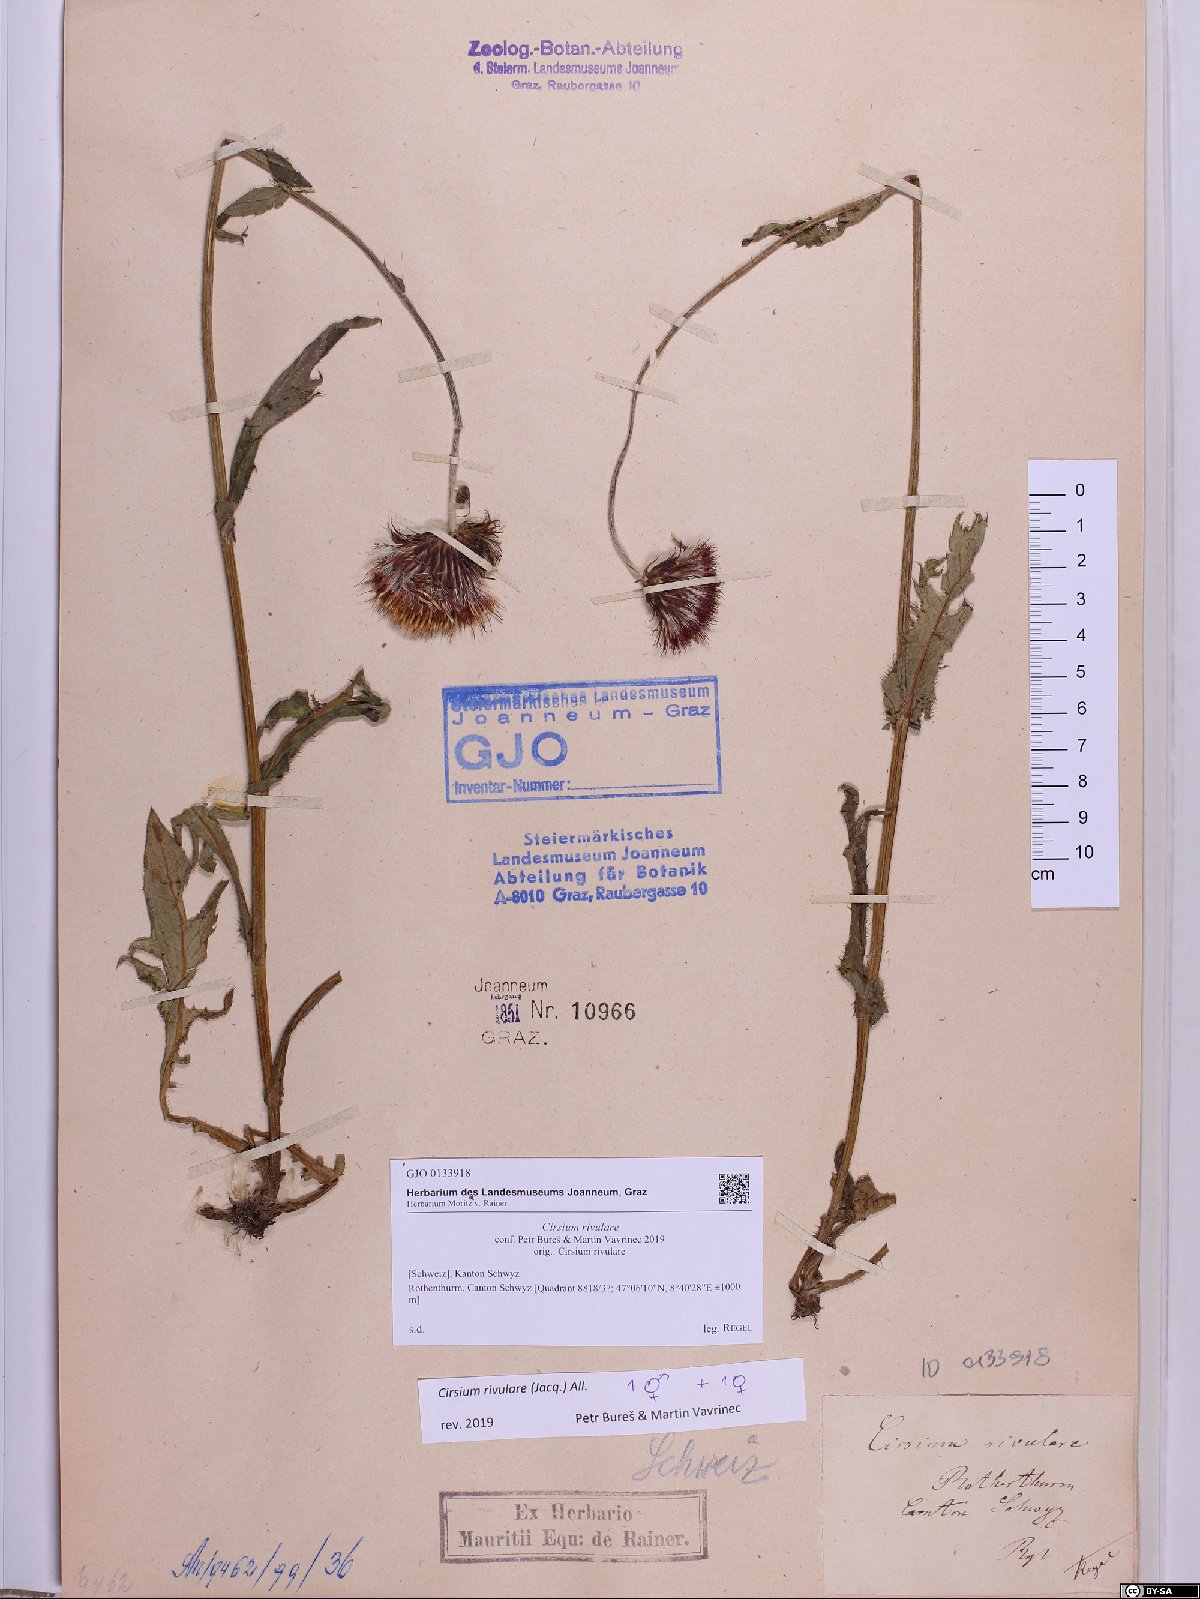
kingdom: Plantae
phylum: Tracheophyta
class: Magnoliopsida
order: Asterales
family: Asteraceae
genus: Cirsium
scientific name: Cirsium rivulare
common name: Brook thistle
